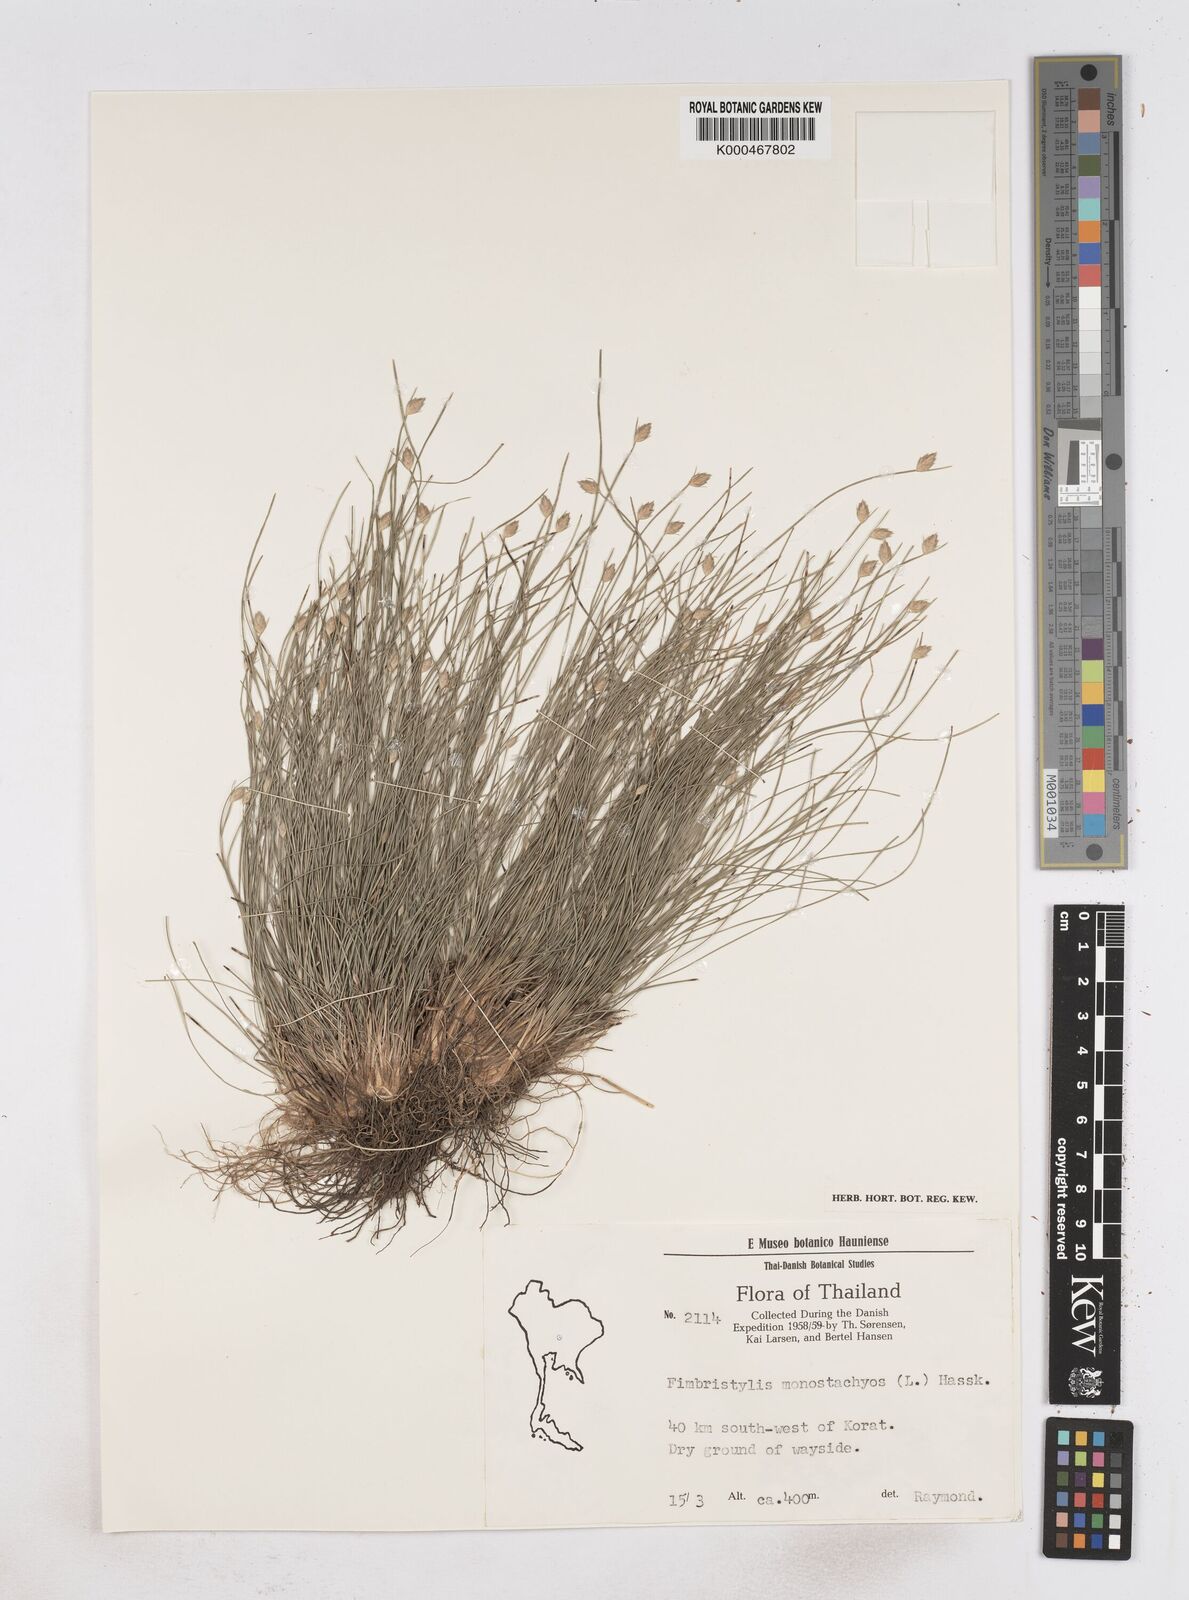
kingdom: Plantae
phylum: Tracheophyta
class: Liliopsida
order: Poales
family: Cyperaceae
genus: Abildgaardia
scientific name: Abildgaardia ovata
